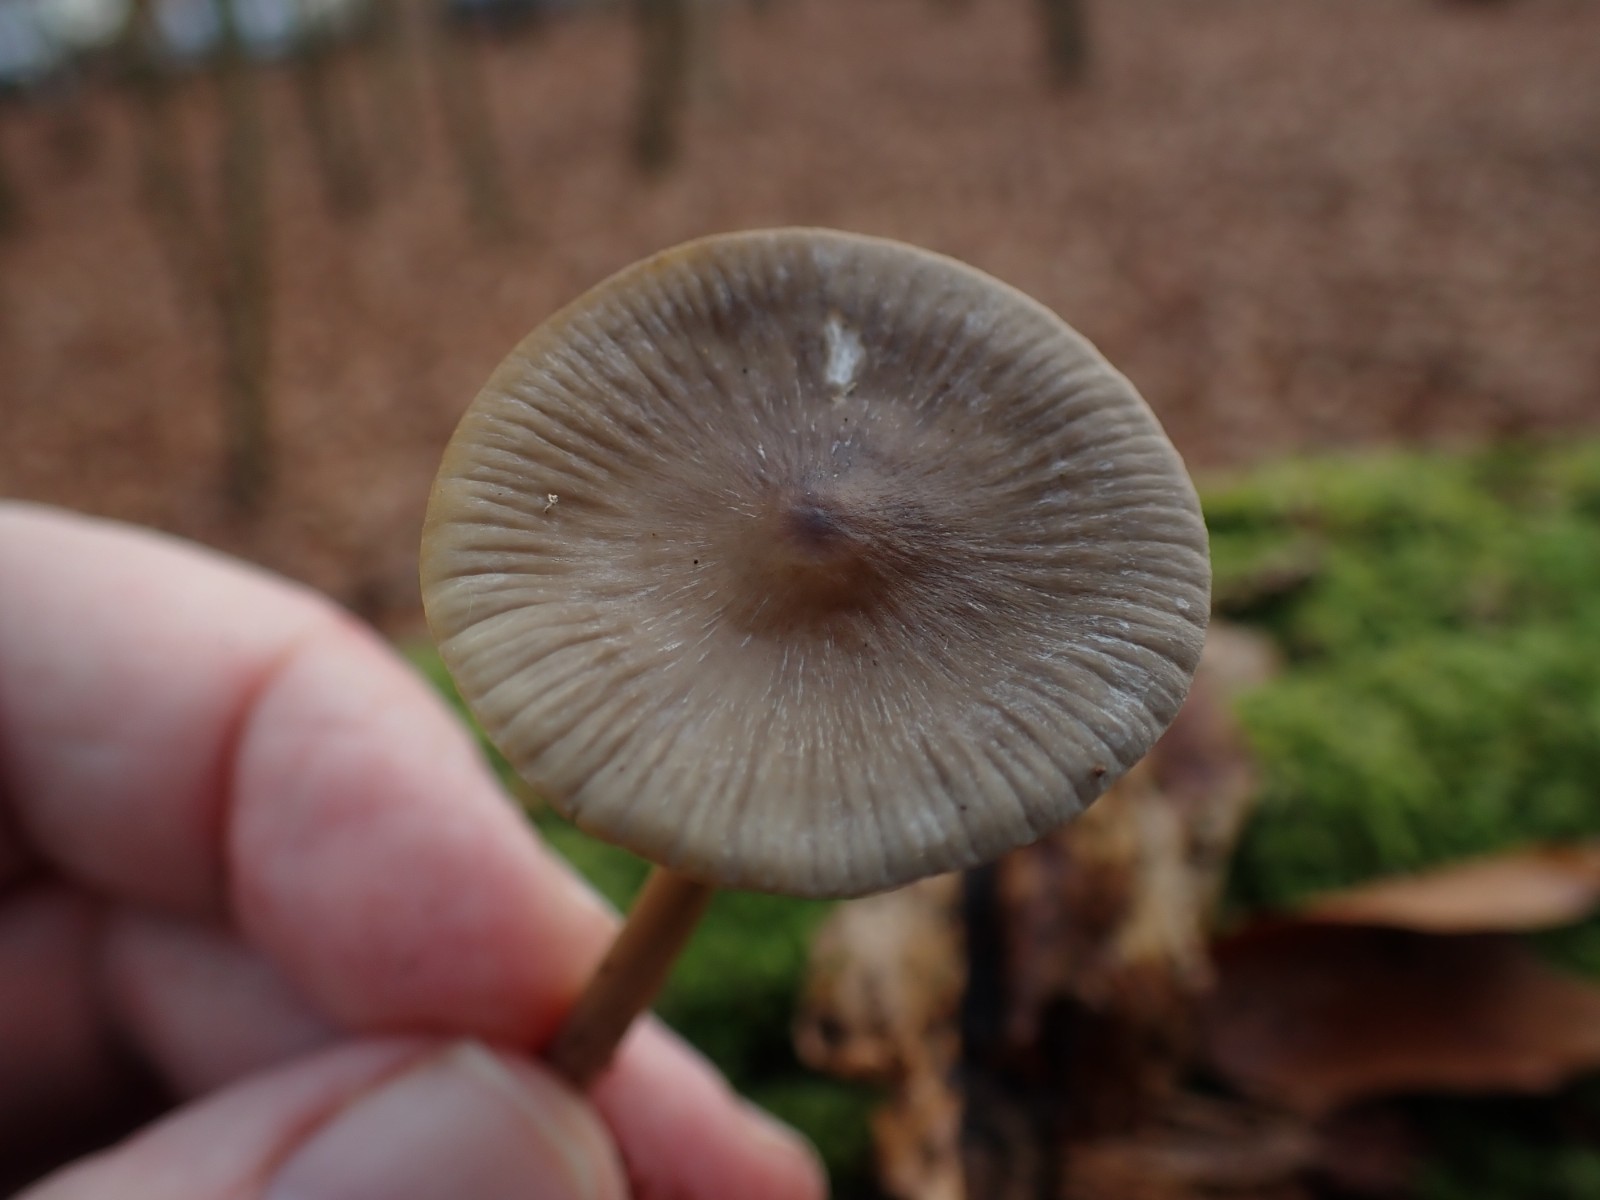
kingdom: Fungi
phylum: Basidiomycota
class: Agaricomycetes
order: Agaricales
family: Mycenaceae
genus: Mycena
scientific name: Mycena polygramma
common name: mangestribet huesvamp
